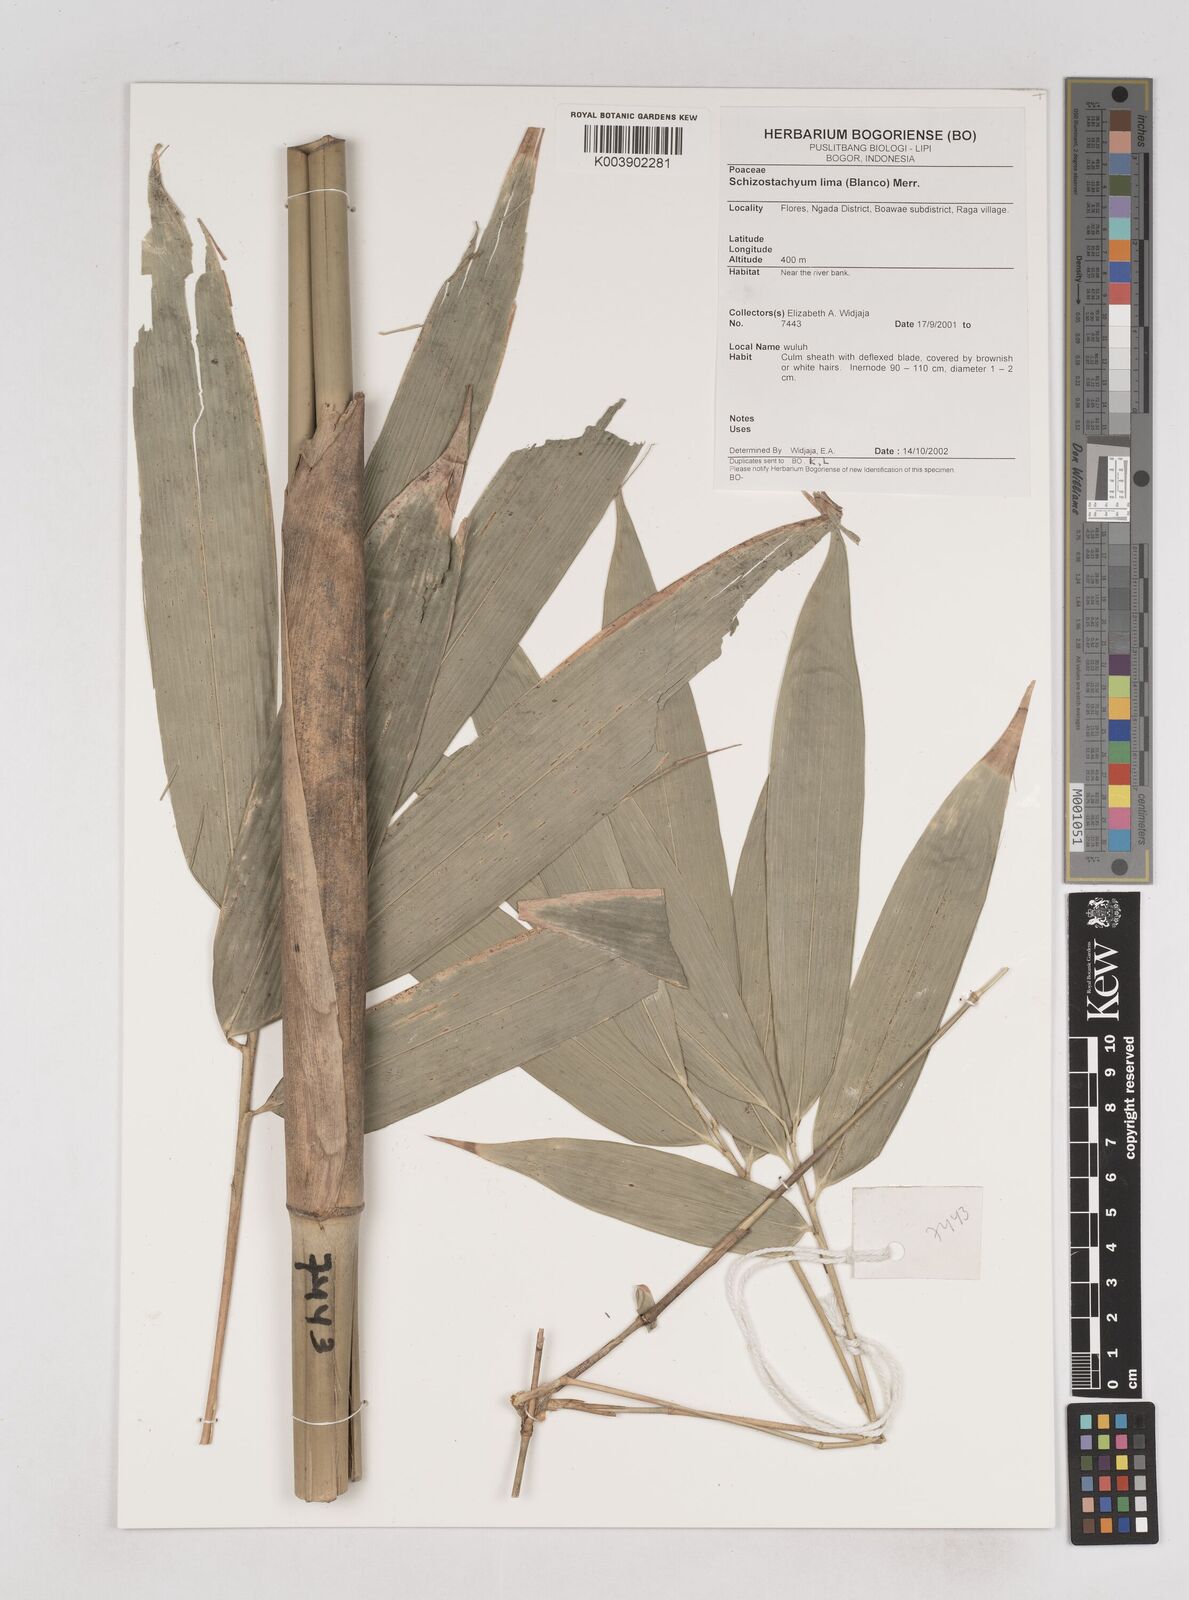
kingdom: Plantae
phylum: Tracheophyta
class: Liliopsida
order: Poales
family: Poaceae
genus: Schizostachyum
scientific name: Schizostachyum lima
